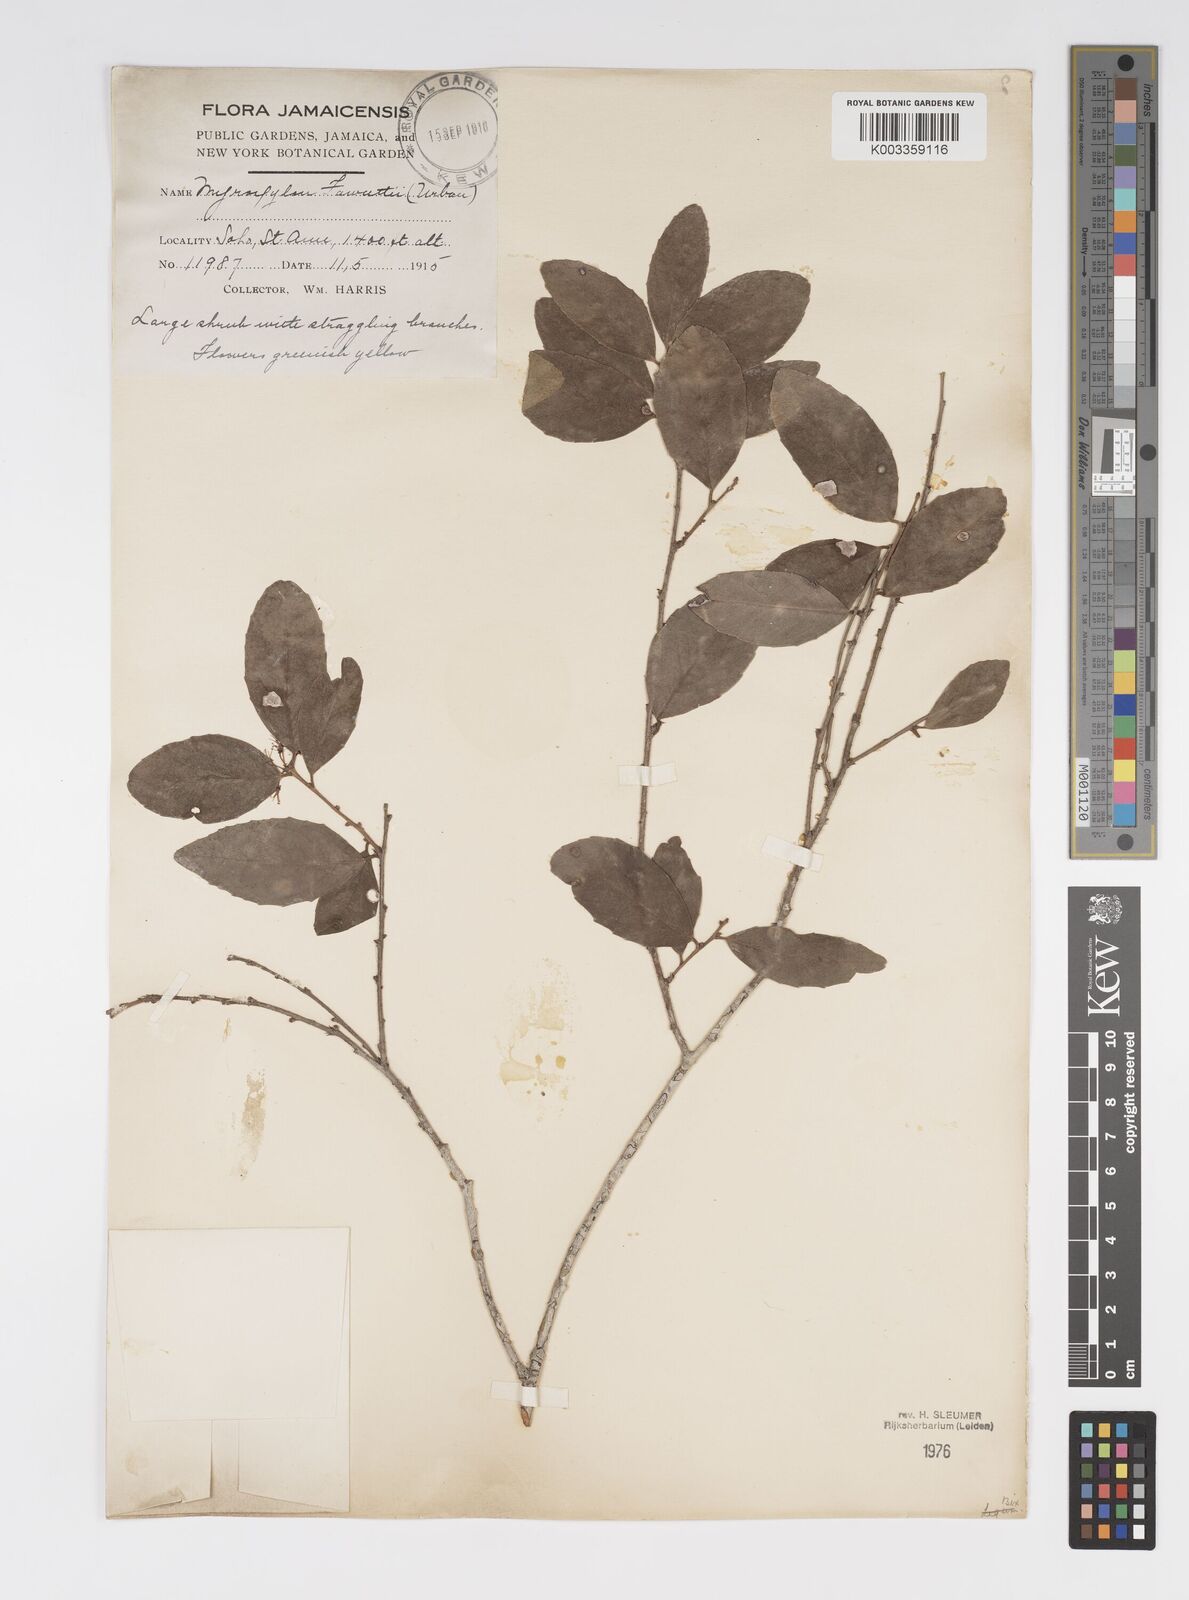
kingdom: Plantae
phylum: Tracheophyta
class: Magnoliopsida
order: Malpighiales
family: Salicaceae
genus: Xylosma
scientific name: Xylosma fawcettii
